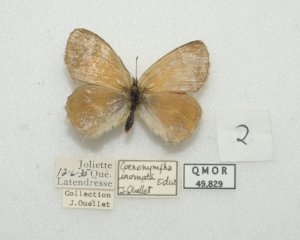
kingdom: Animalia
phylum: Arthropoda
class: Insecta
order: Lepidoptera
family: Nymphalidae
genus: Coenonympha
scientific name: Coenonympha tullia
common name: Large Heath
